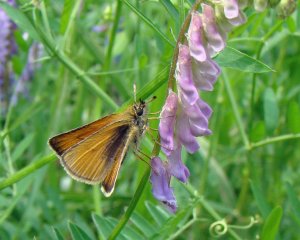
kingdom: Animalia
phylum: Arthropoda
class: Insecta
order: Lepidoptera
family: Hesperiidae
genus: Thymelicus
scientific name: Thymelicus lineola
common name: European Skipper
